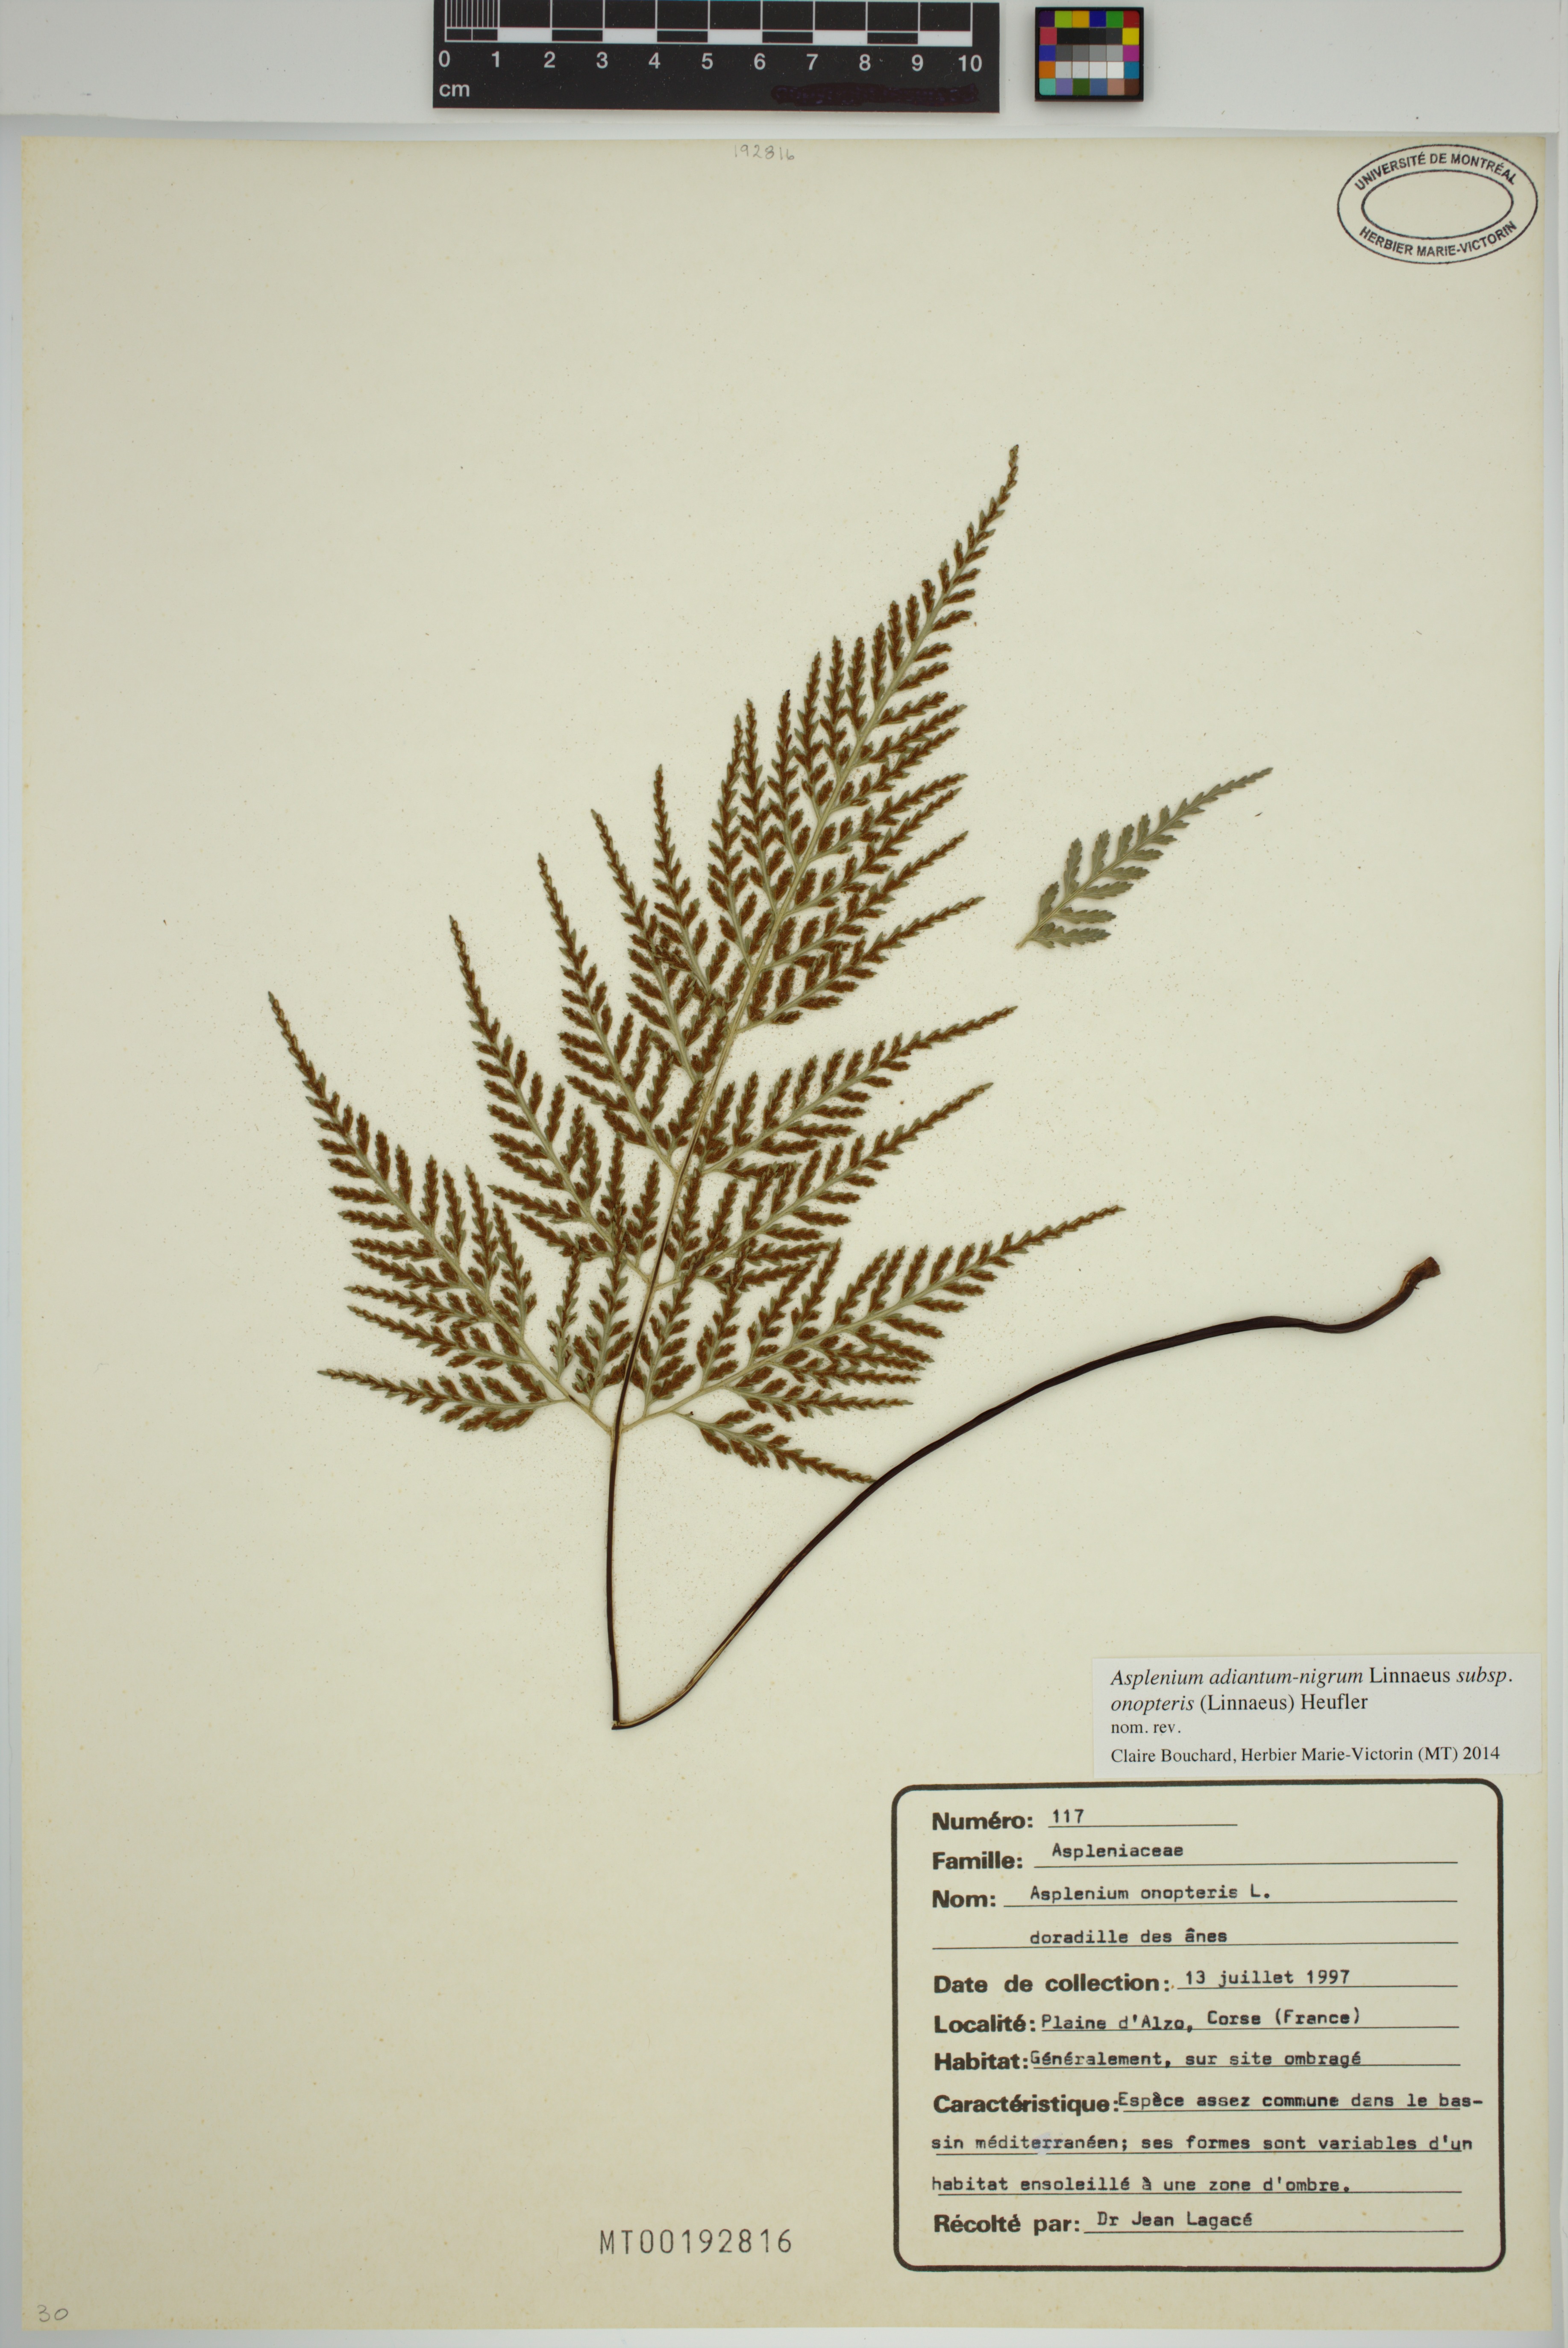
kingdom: Plantae
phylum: Tracheophyta
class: Polypodiopsida
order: Polypodiales
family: Aspleniaceae
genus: Asplenium
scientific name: Asplenium onopteris
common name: Irish spleenwort
